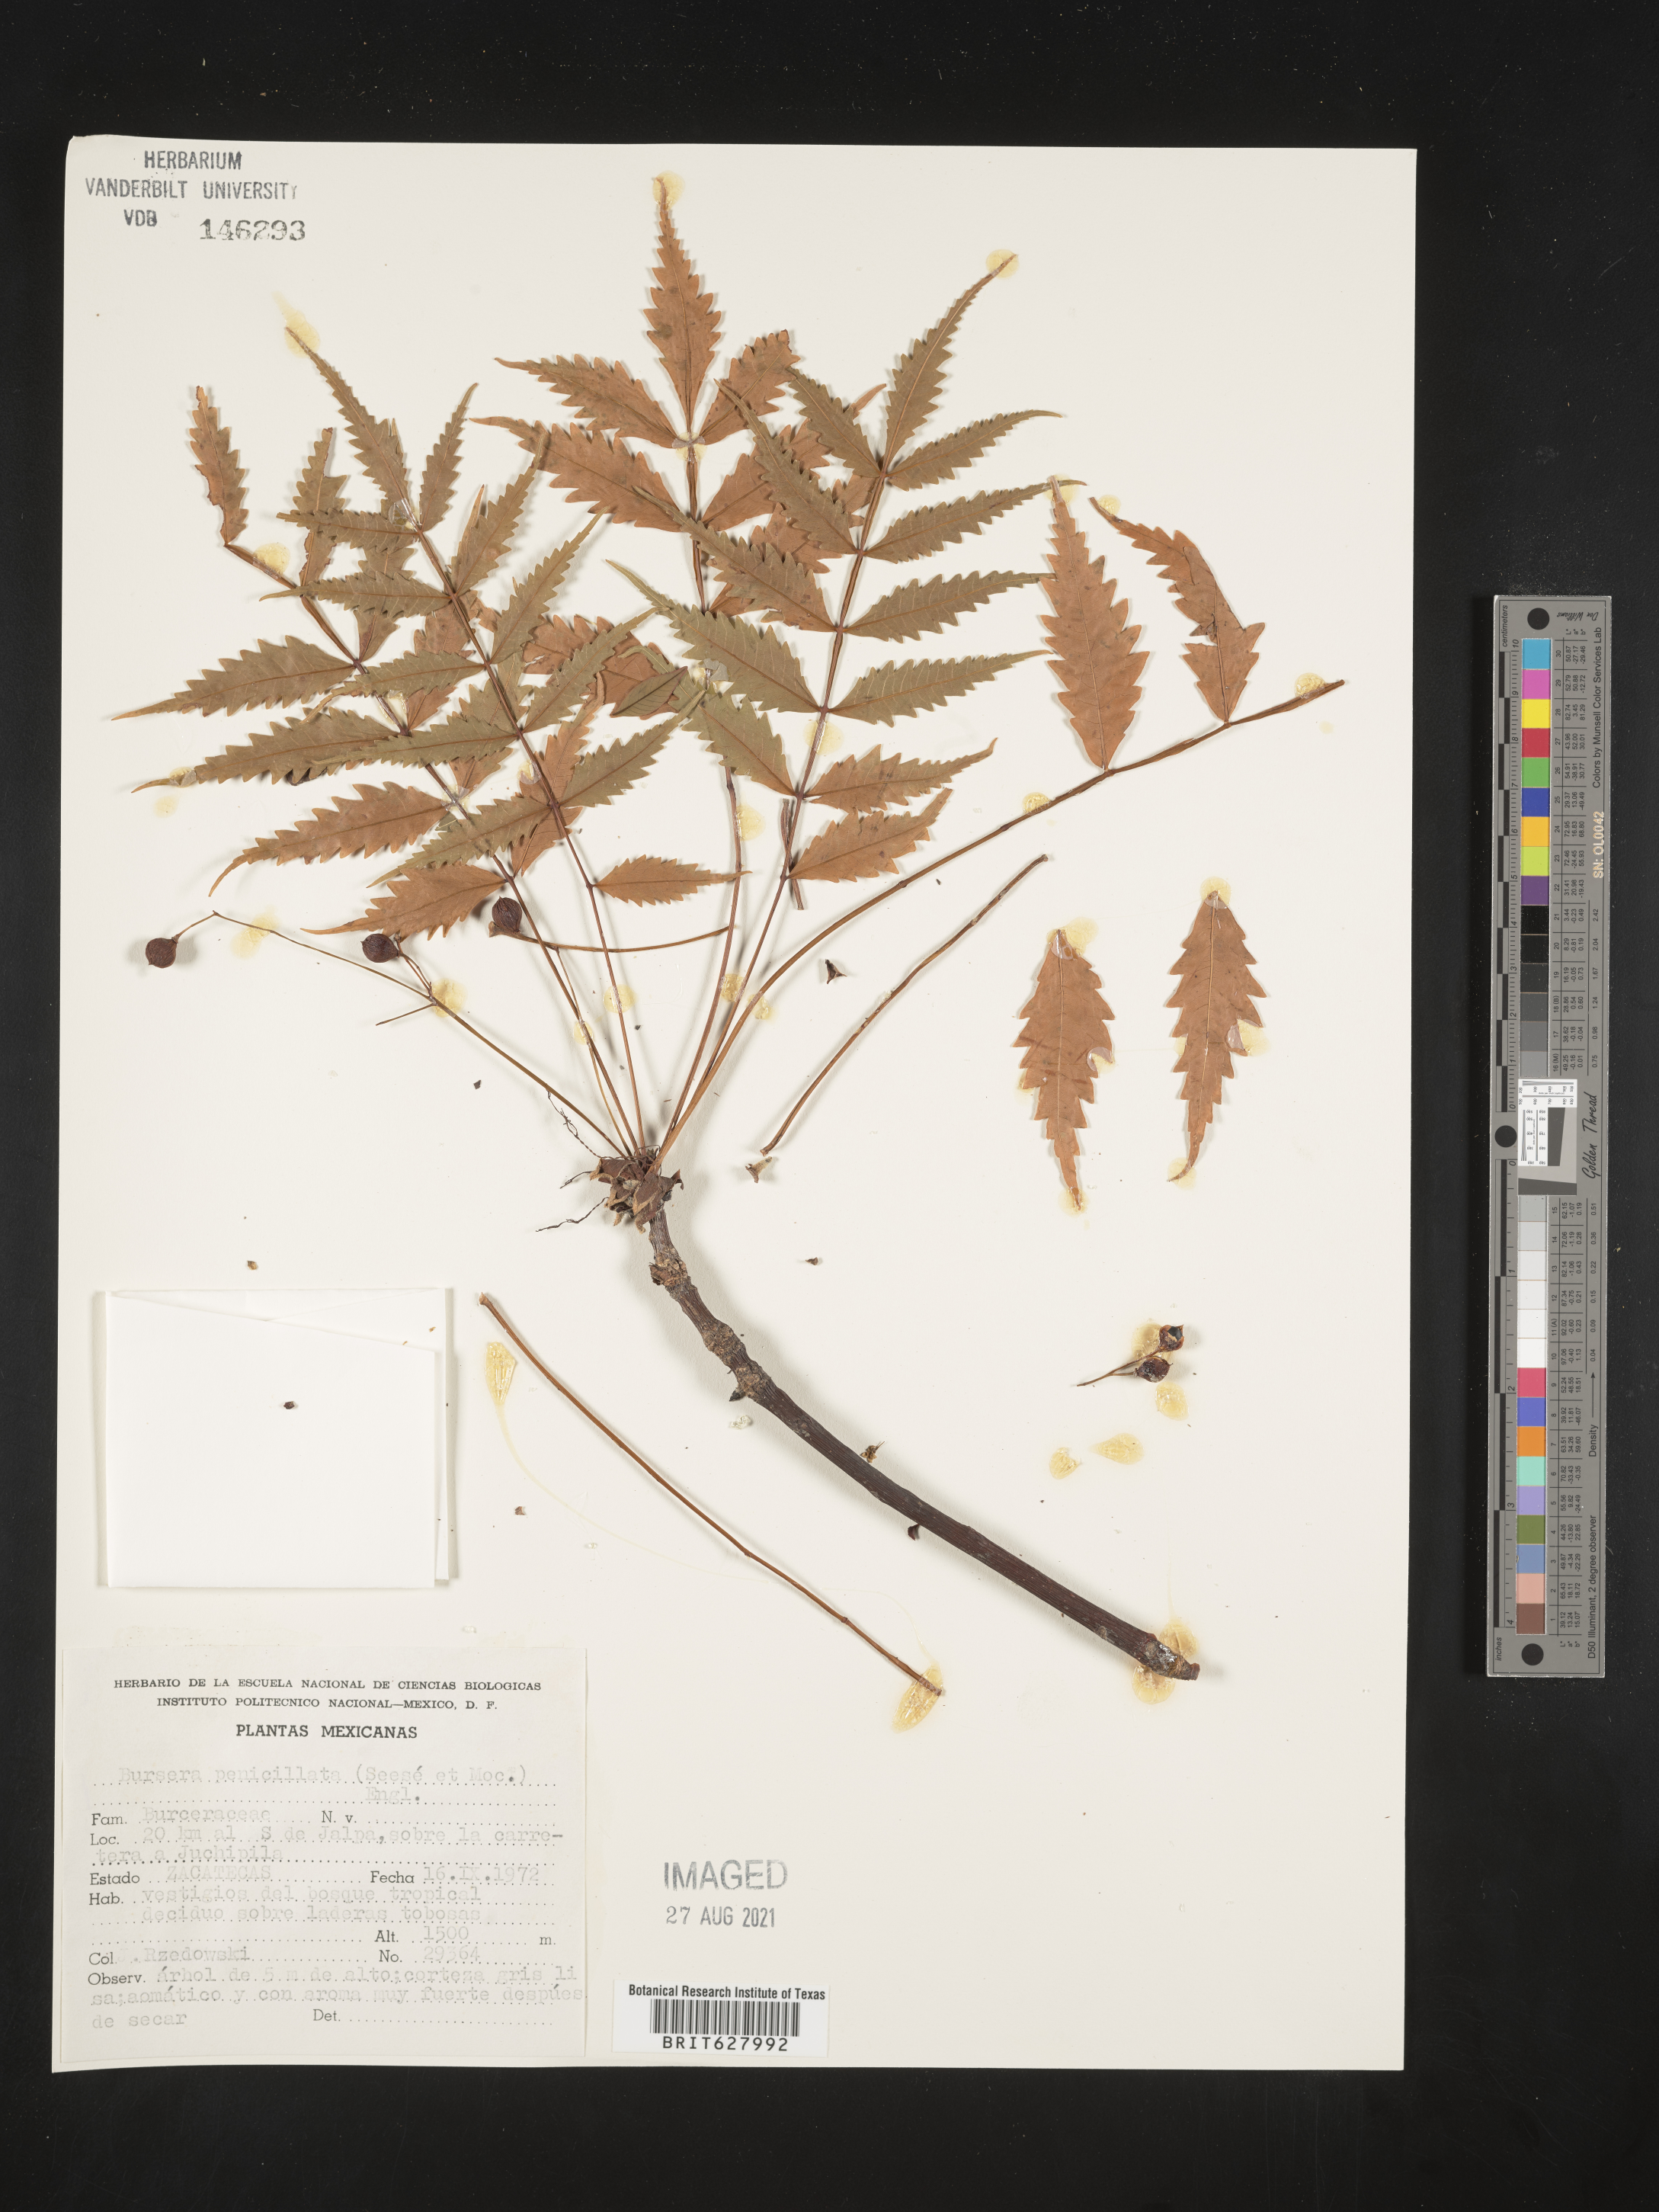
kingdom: Plantae
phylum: Tracheophyta
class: Magnoliopsida
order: Sapindales
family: Burseraceae
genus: Bursera
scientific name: Bursera
